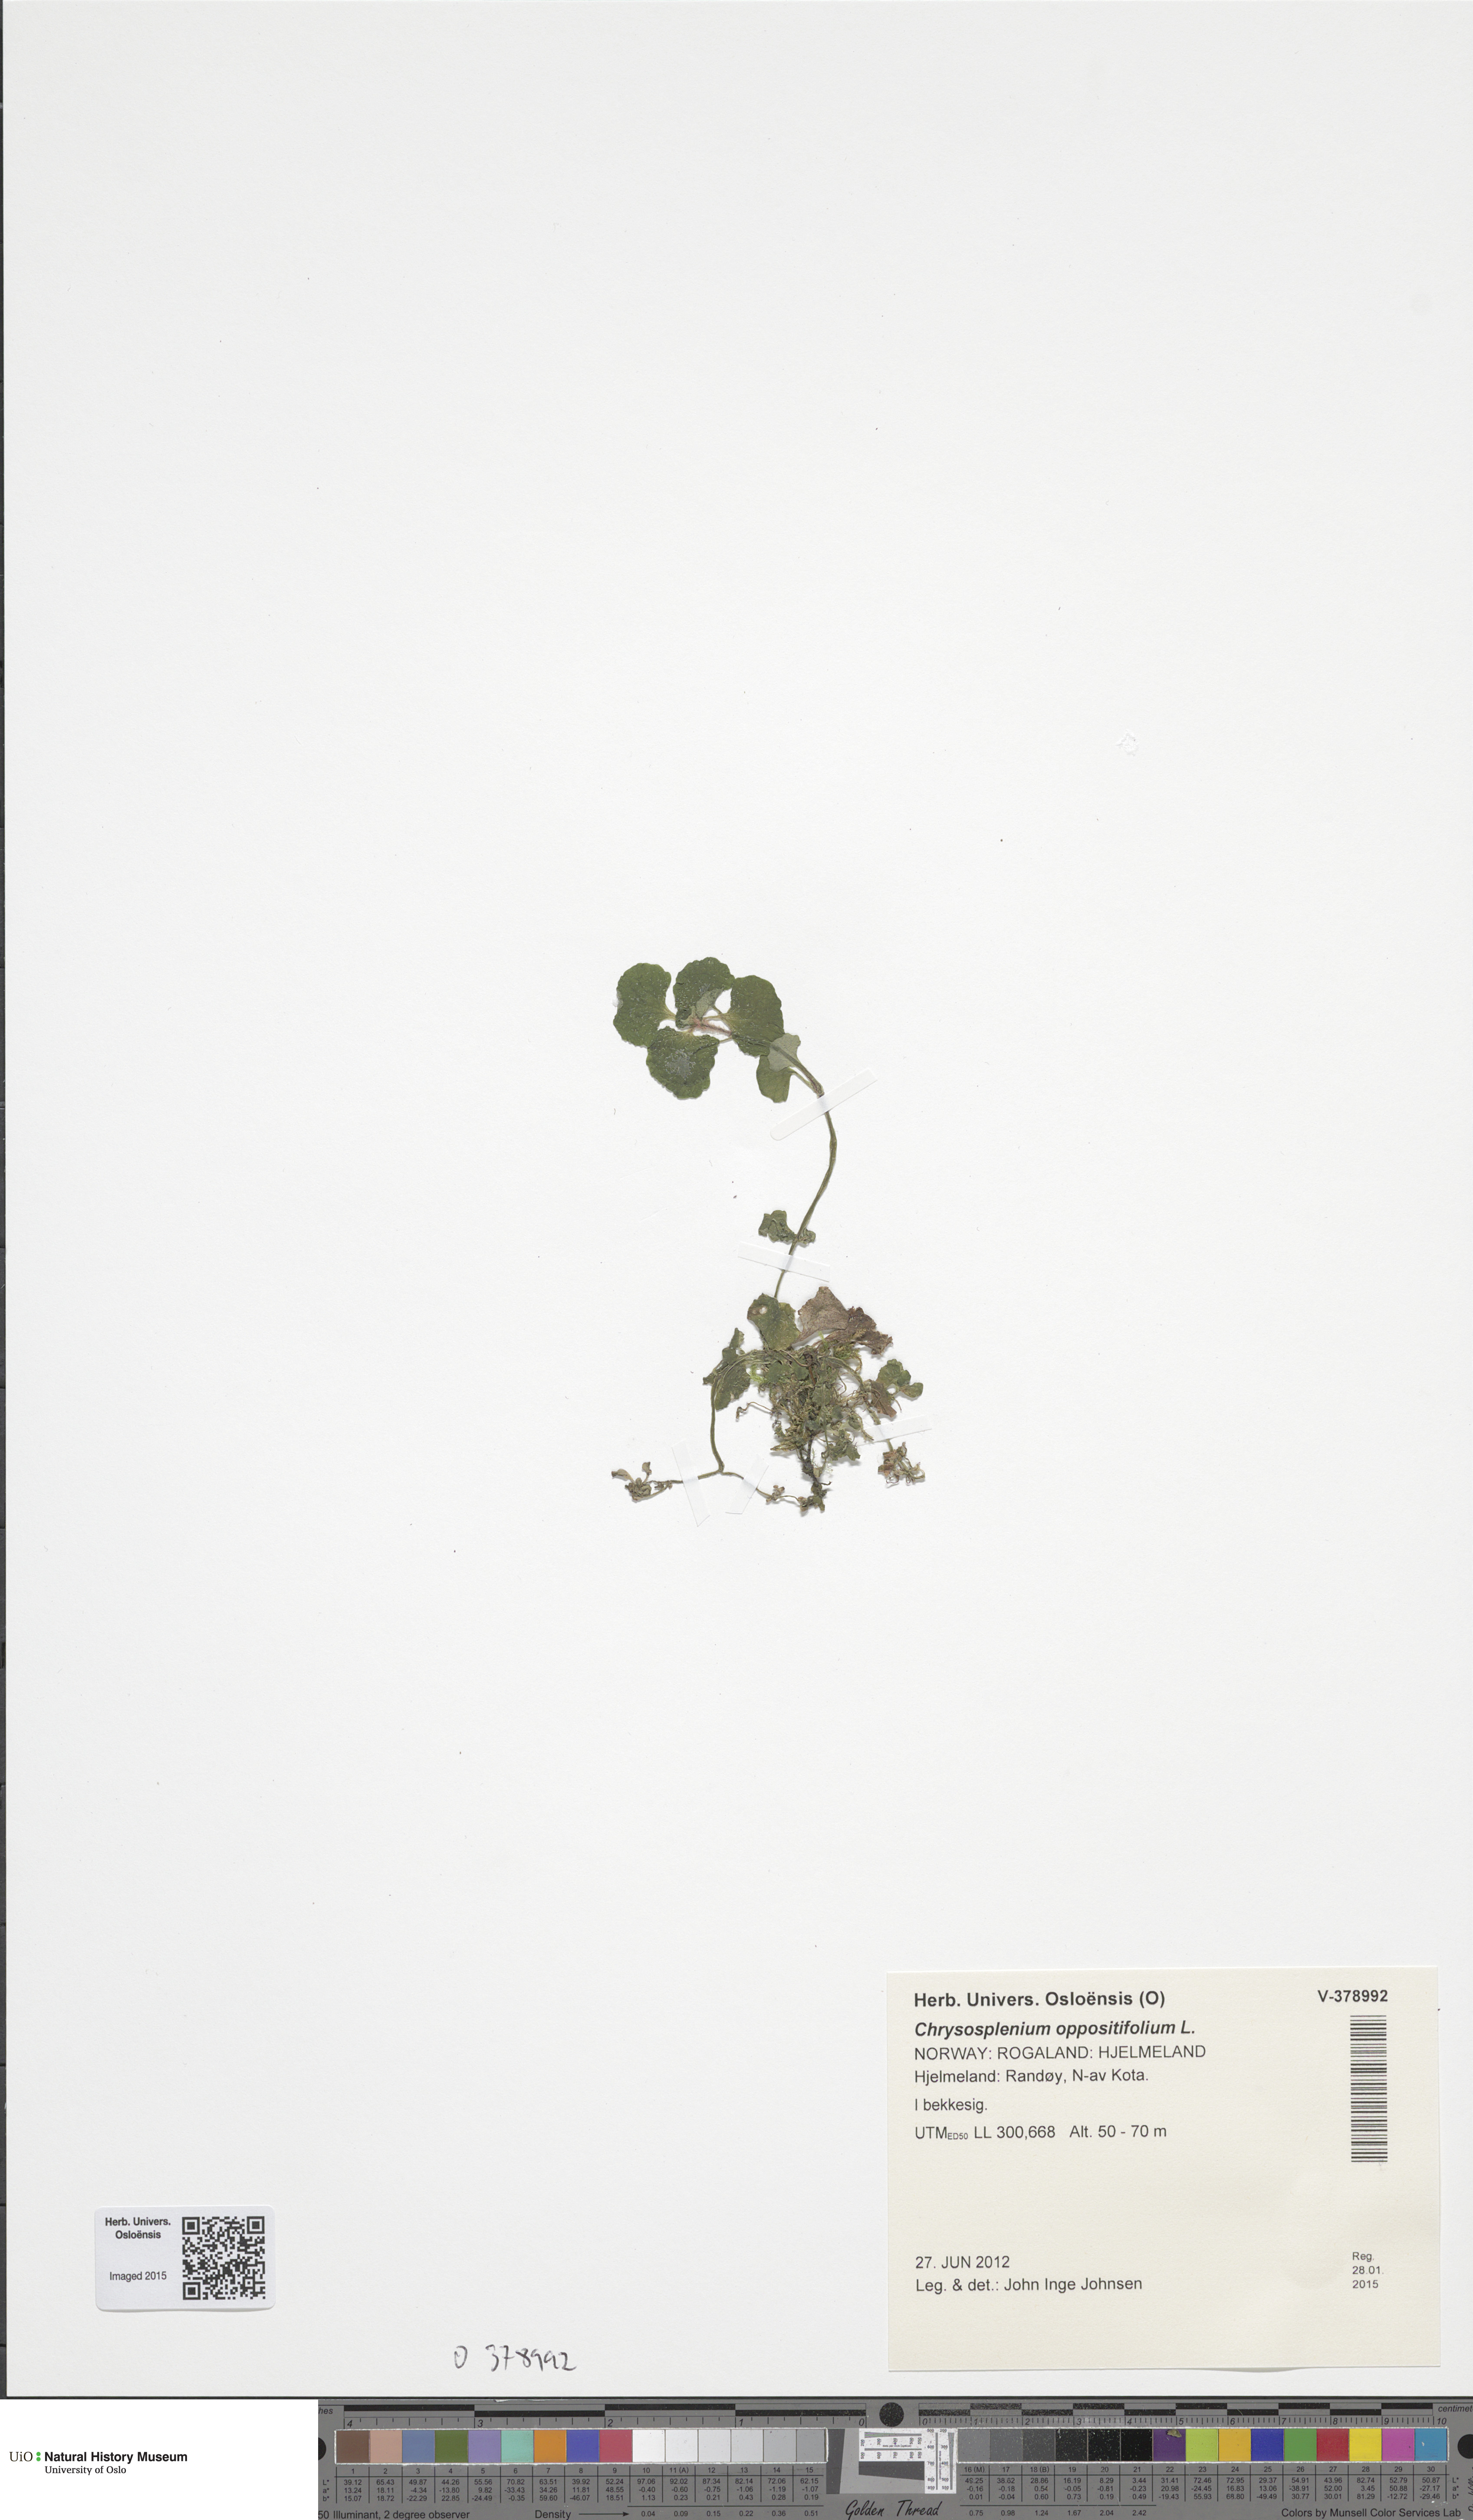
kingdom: Plantae
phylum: Tracheophyta
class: Magnoliopsida
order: Saxifragales
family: Saxifragaceae
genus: Chrysosplenium
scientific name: Chrysosplenium oppositifolium
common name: Opposite-leaved golden-saxifrage
